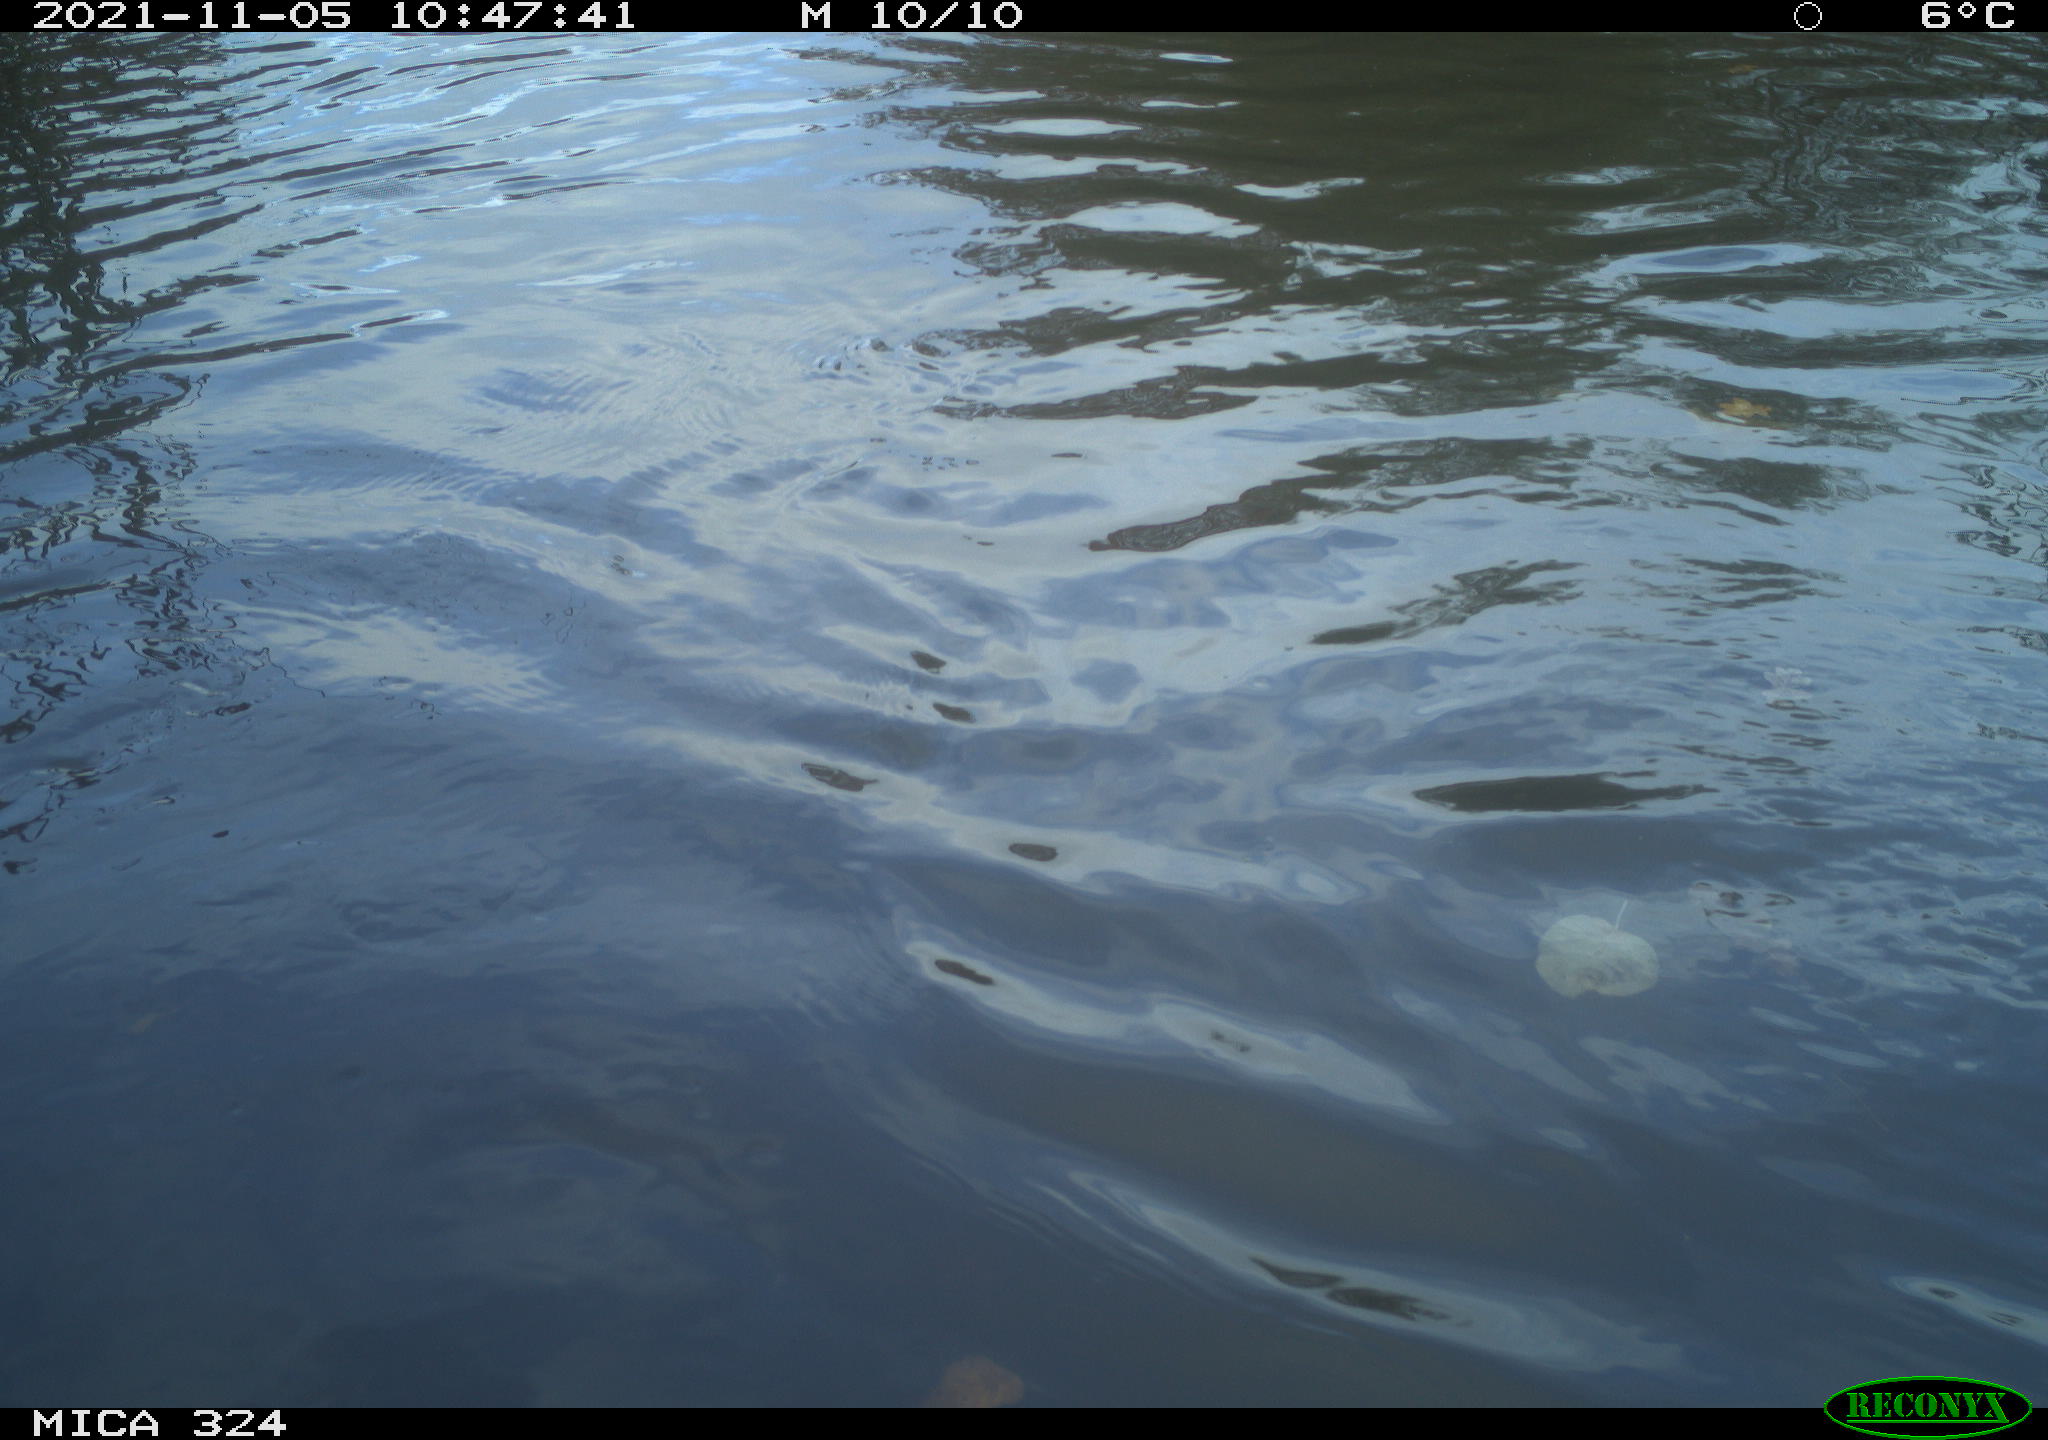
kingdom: Animalia
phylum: Chordata
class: Aves
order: Gruiformes
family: Rallidae
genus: Gallinula
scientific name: Gallinula chloropus
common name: Common moorhen
